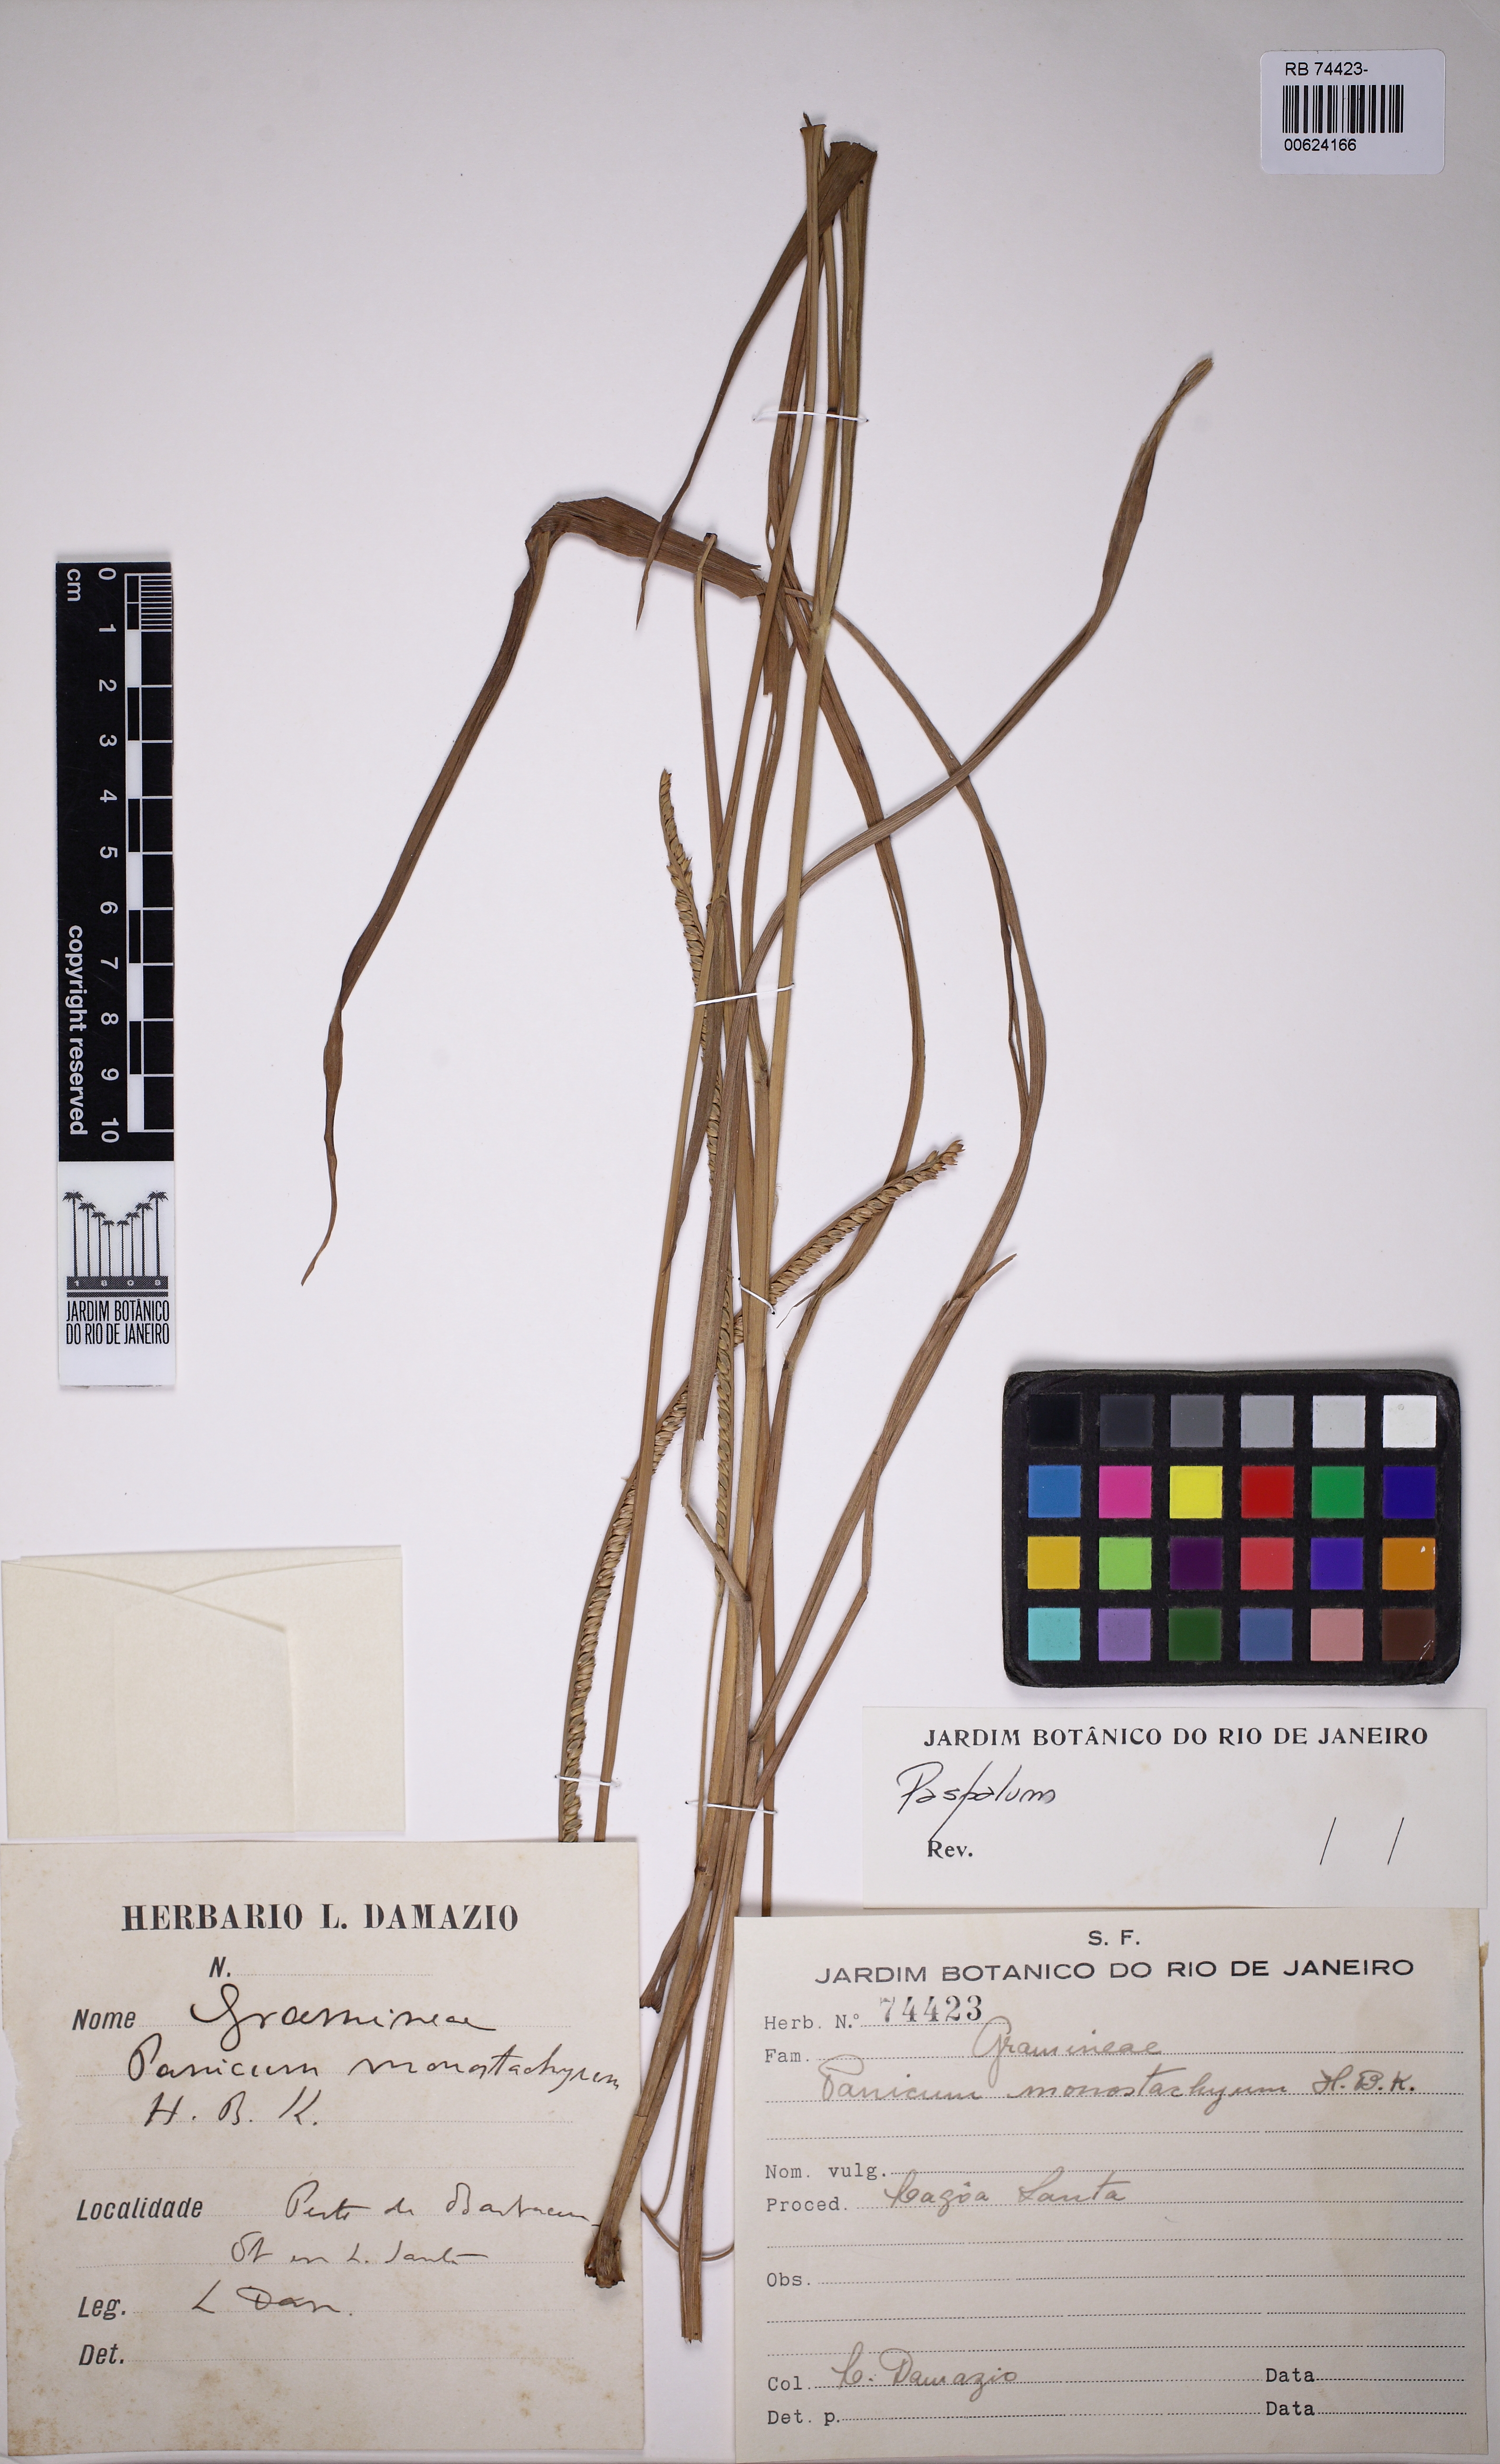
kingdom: Plantae
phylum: Tracheophyta
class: Liliopsida
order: Poales
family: Poaceae
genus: Paspalum
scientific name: Paspalum pilosum
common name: Crowngrass
